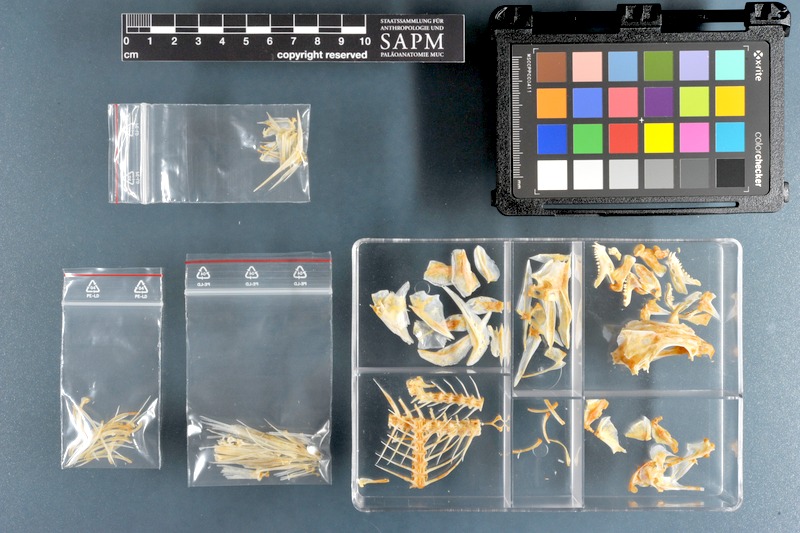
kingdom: Animalia
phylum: Chordata
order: Perciformes
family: Lethrinidae
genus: Lethrinus
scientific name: Lethrinus miniatus
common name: Trumpet emperor
